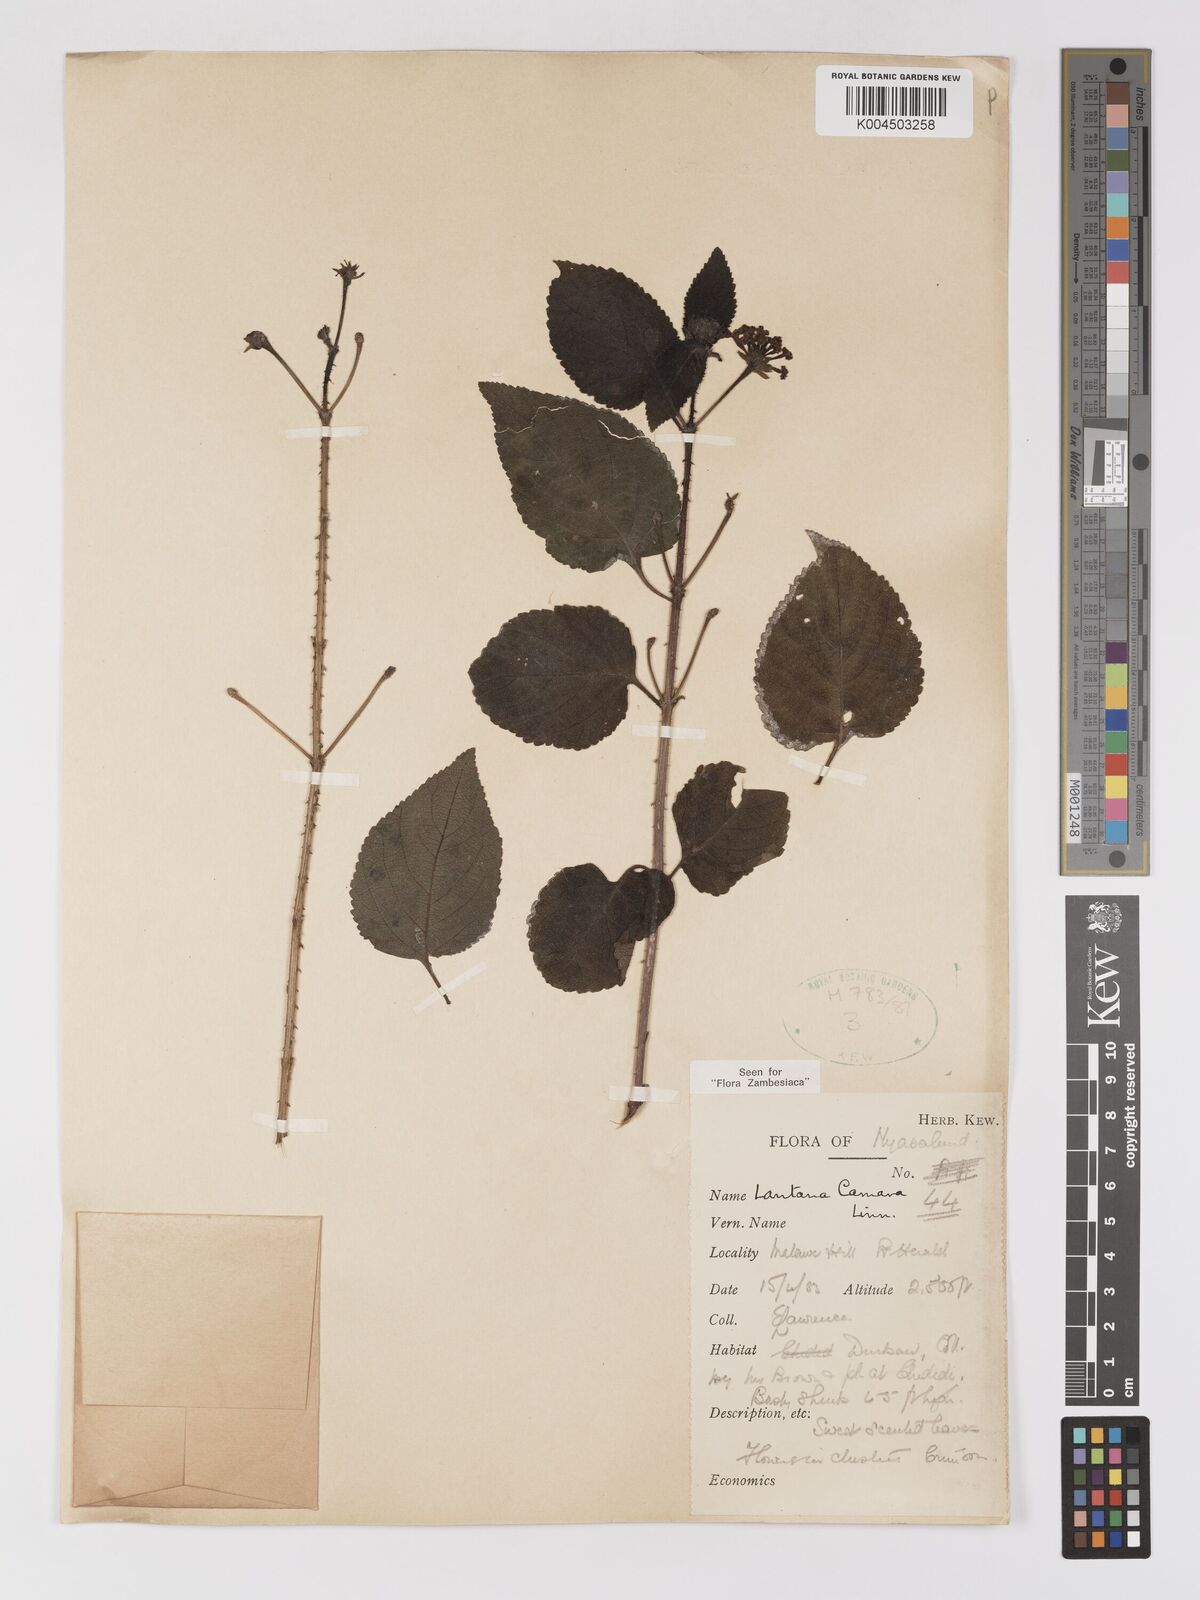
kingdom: Plantae
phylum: Tracheophyta
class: Magnoliopsida
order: Lamiales
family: Verbenaceae
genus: Lantana
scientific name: Lantana camara
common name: Lantana
